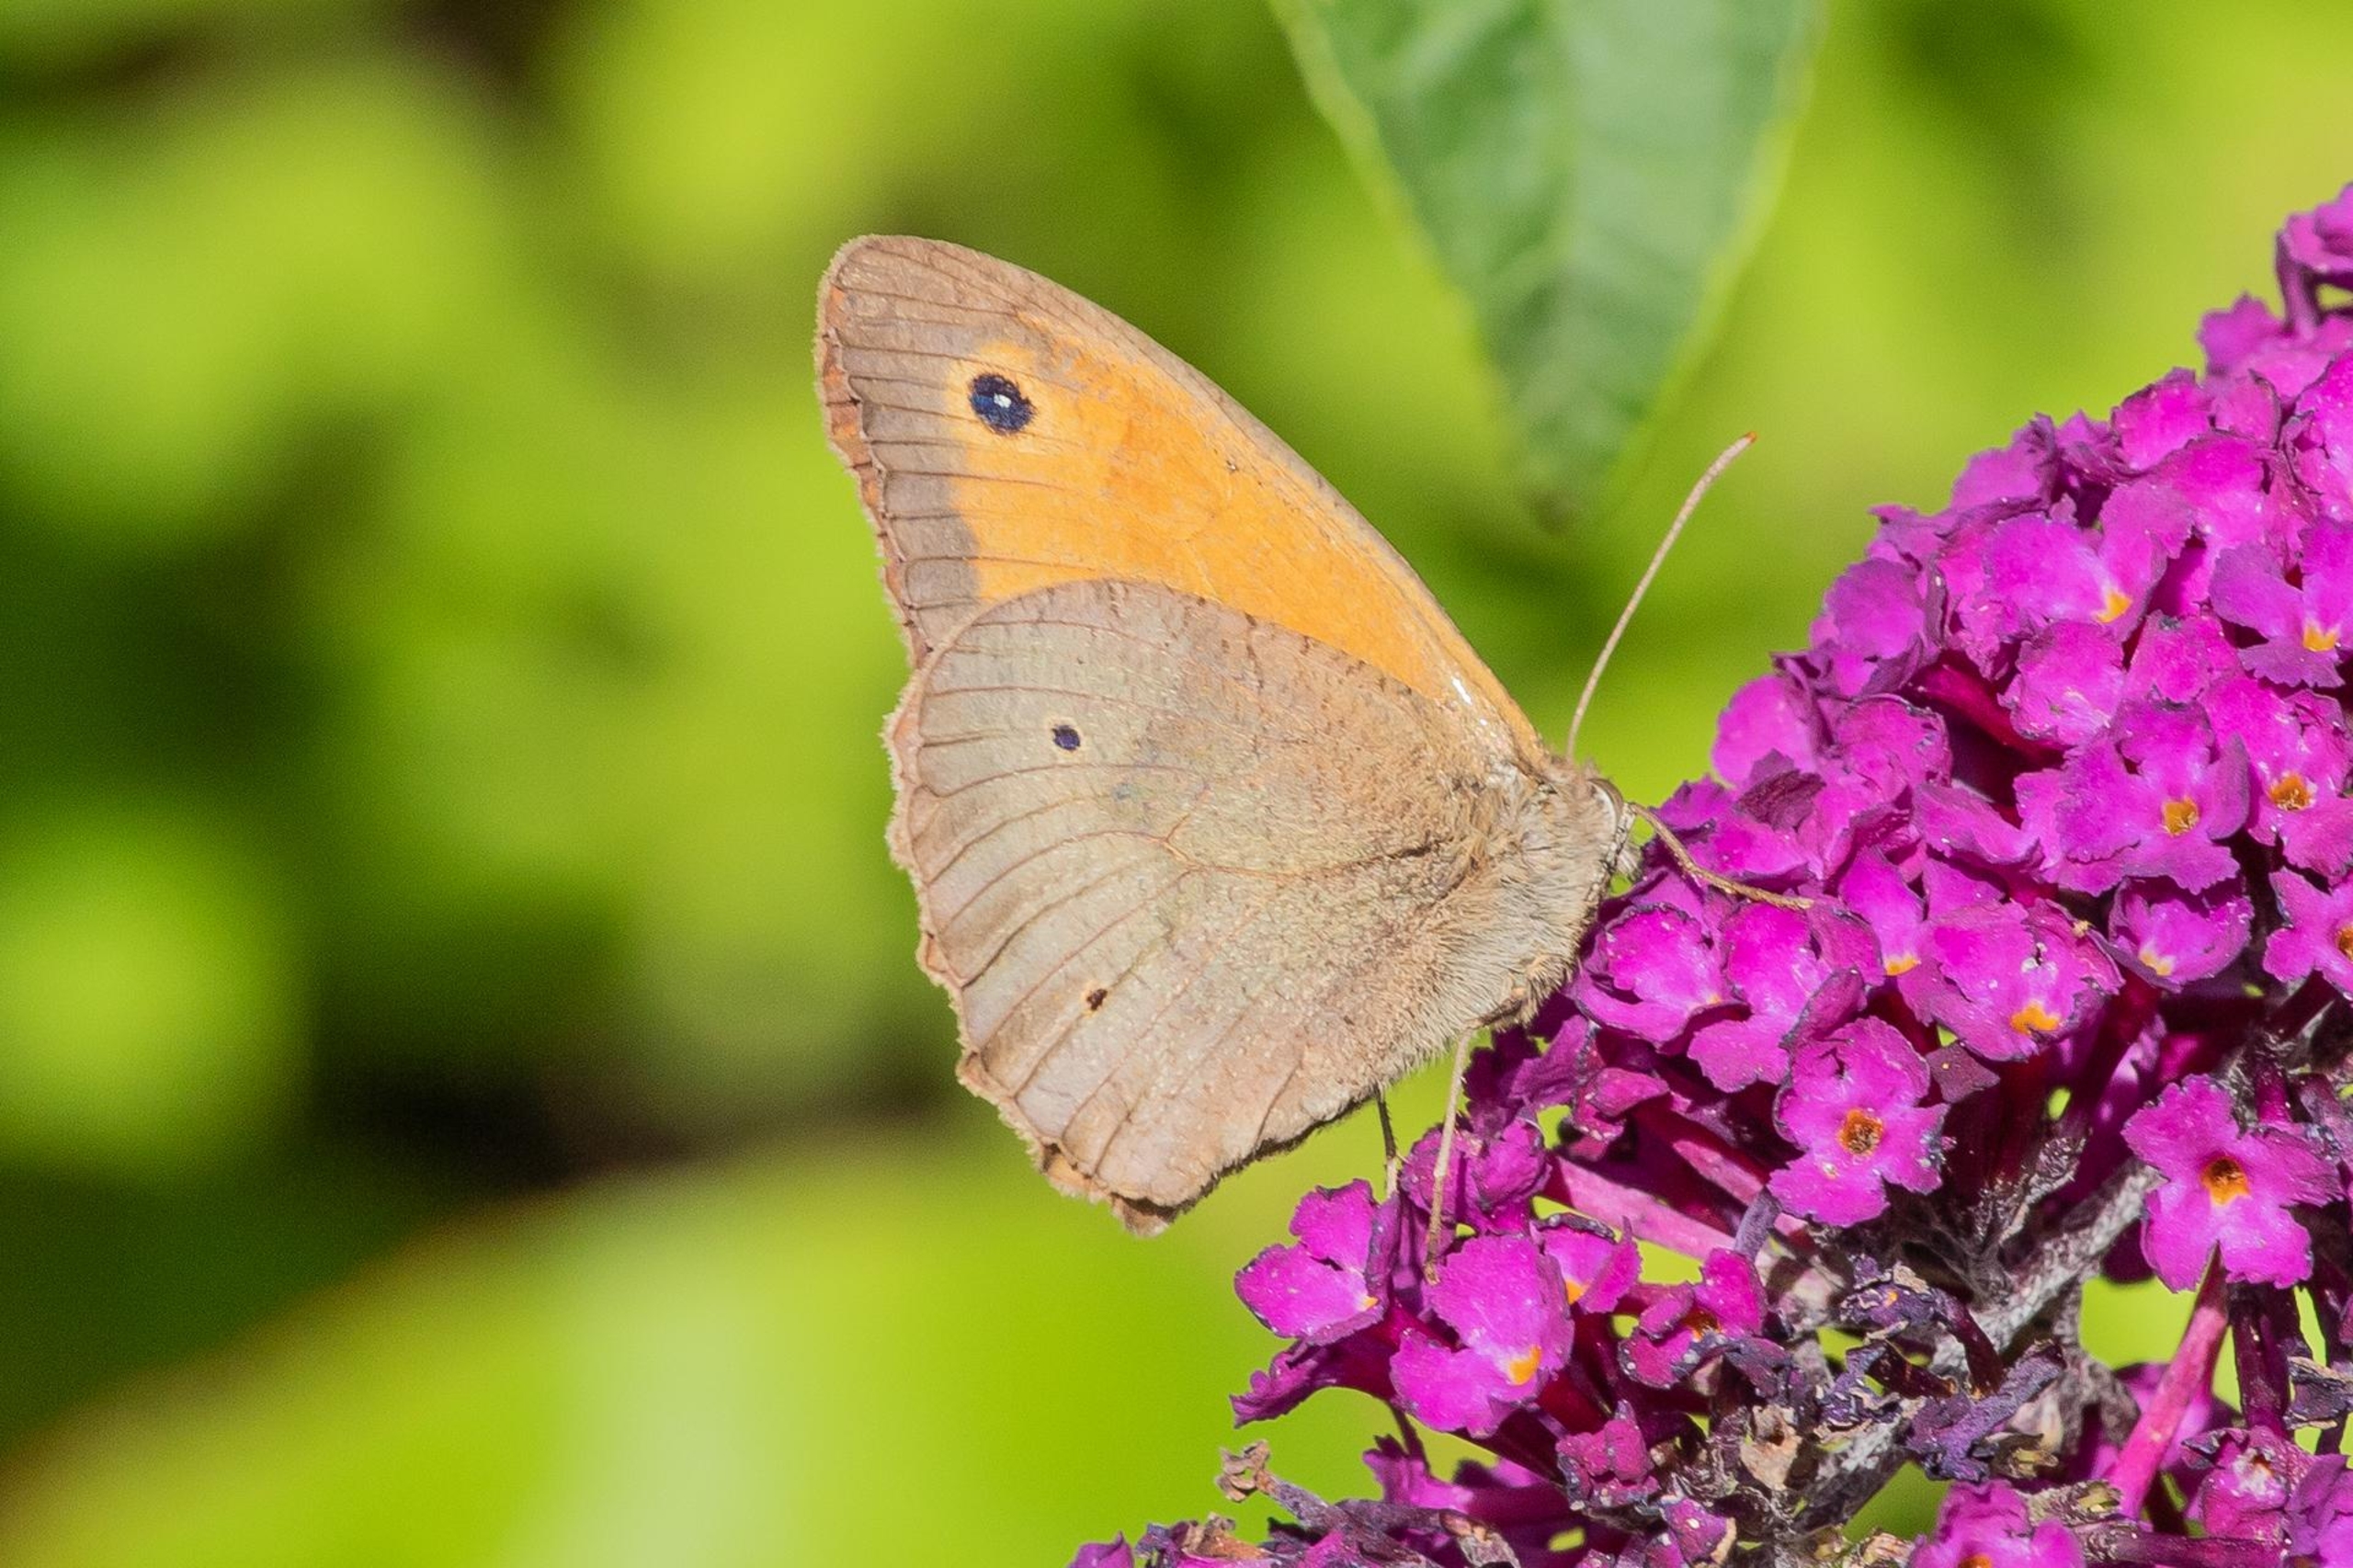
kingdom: Animalia
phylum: Arthropoda
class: Insecta
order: Lepidoptera
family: Nymphalidae
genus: Maniola
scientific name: Maniola jurtina
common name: Græsrandøje
